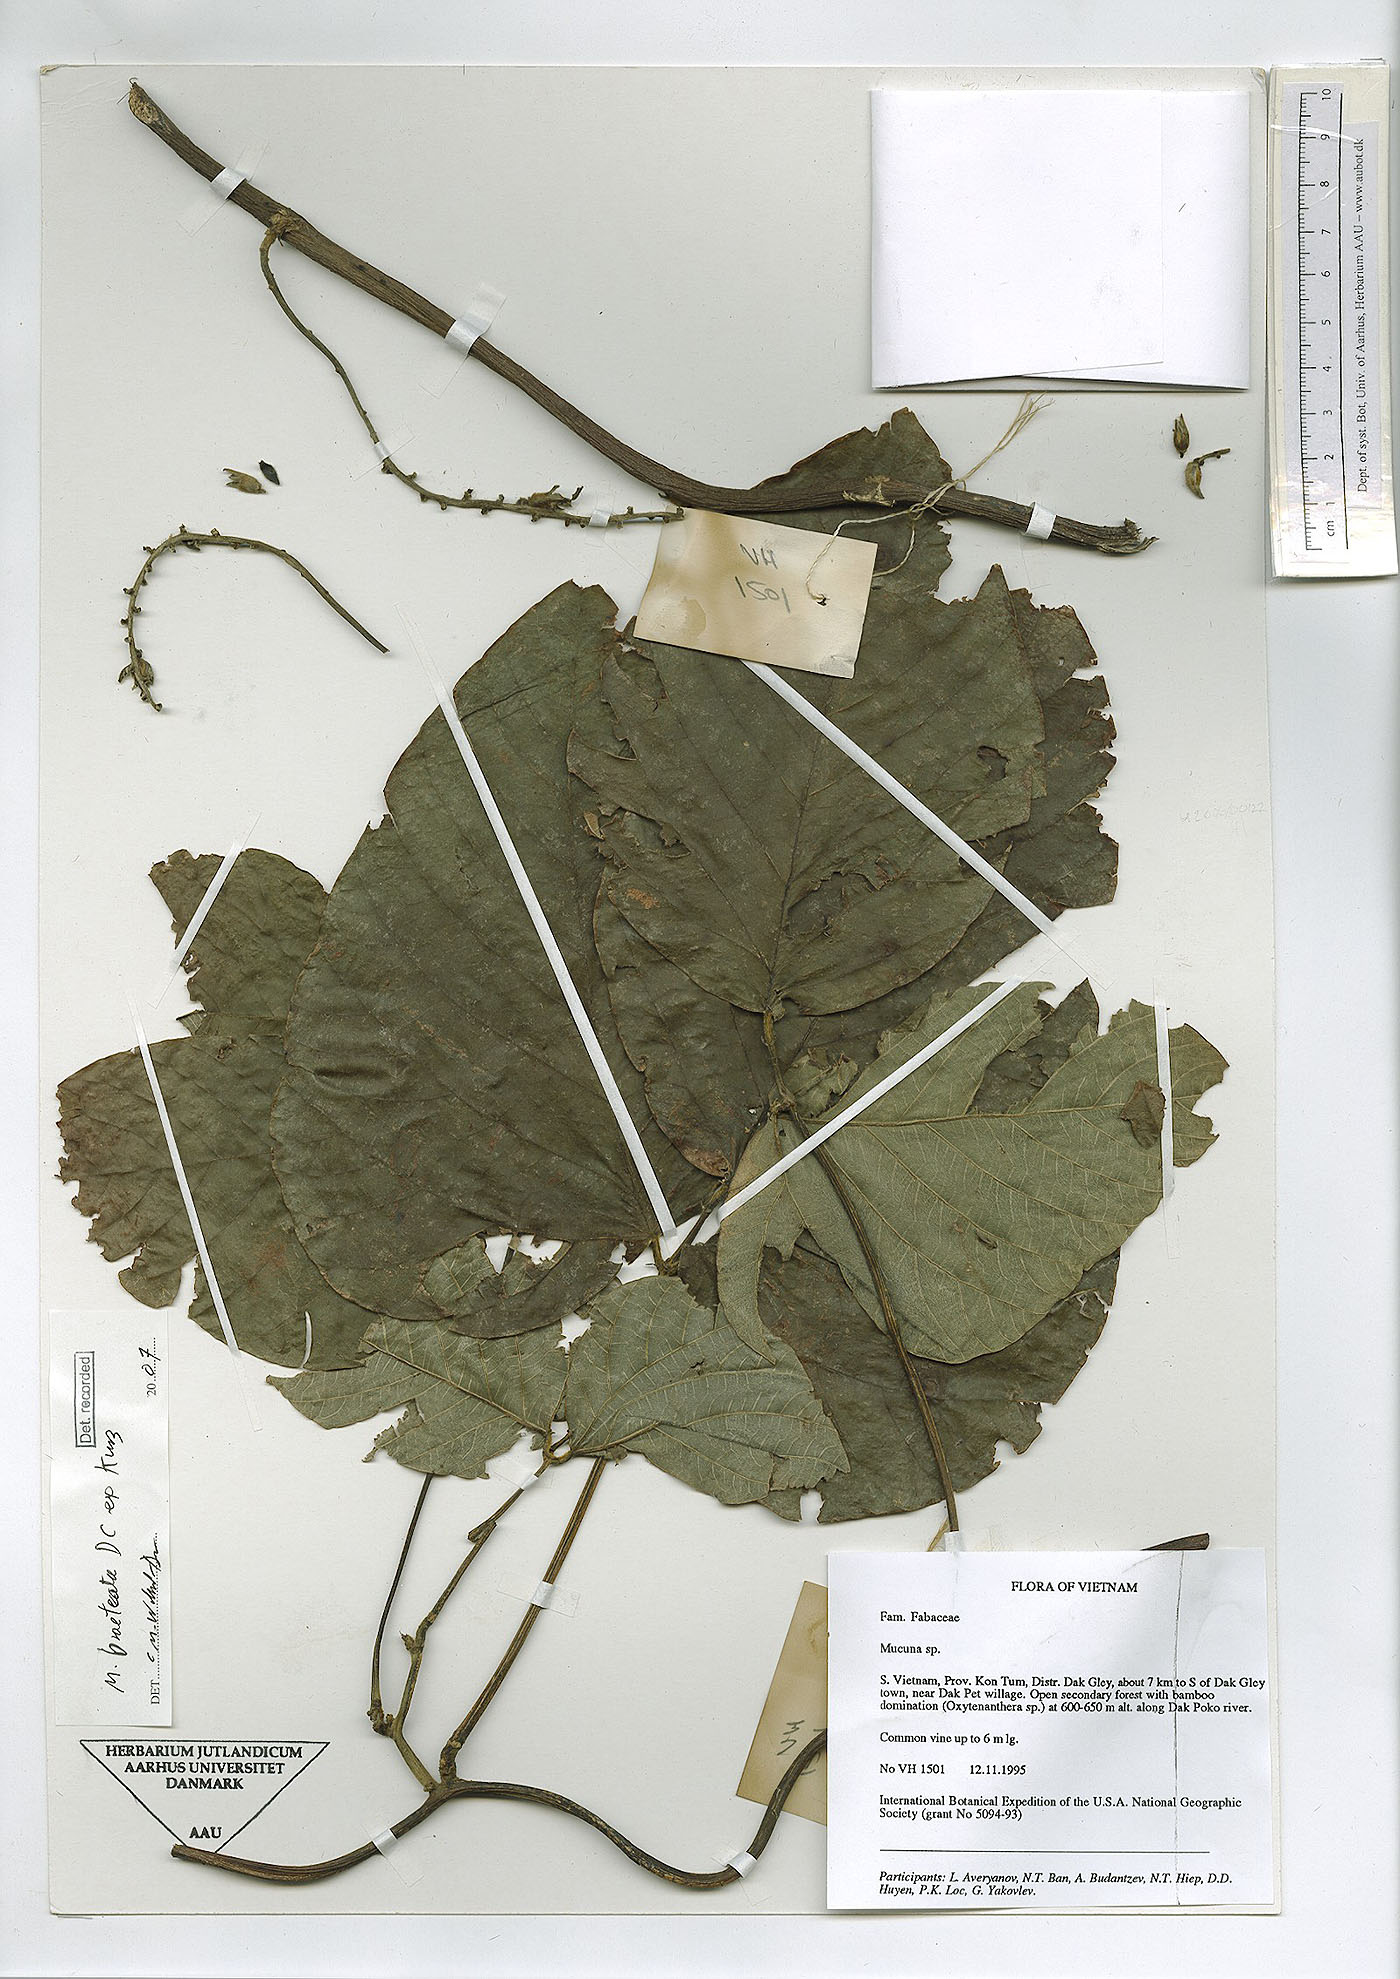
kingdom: Plantae
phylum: Tracheophyta
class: Magnoliopsida
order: Fabales
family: Fabaceae
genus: Mucuna
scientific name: Mucuna bracteata
